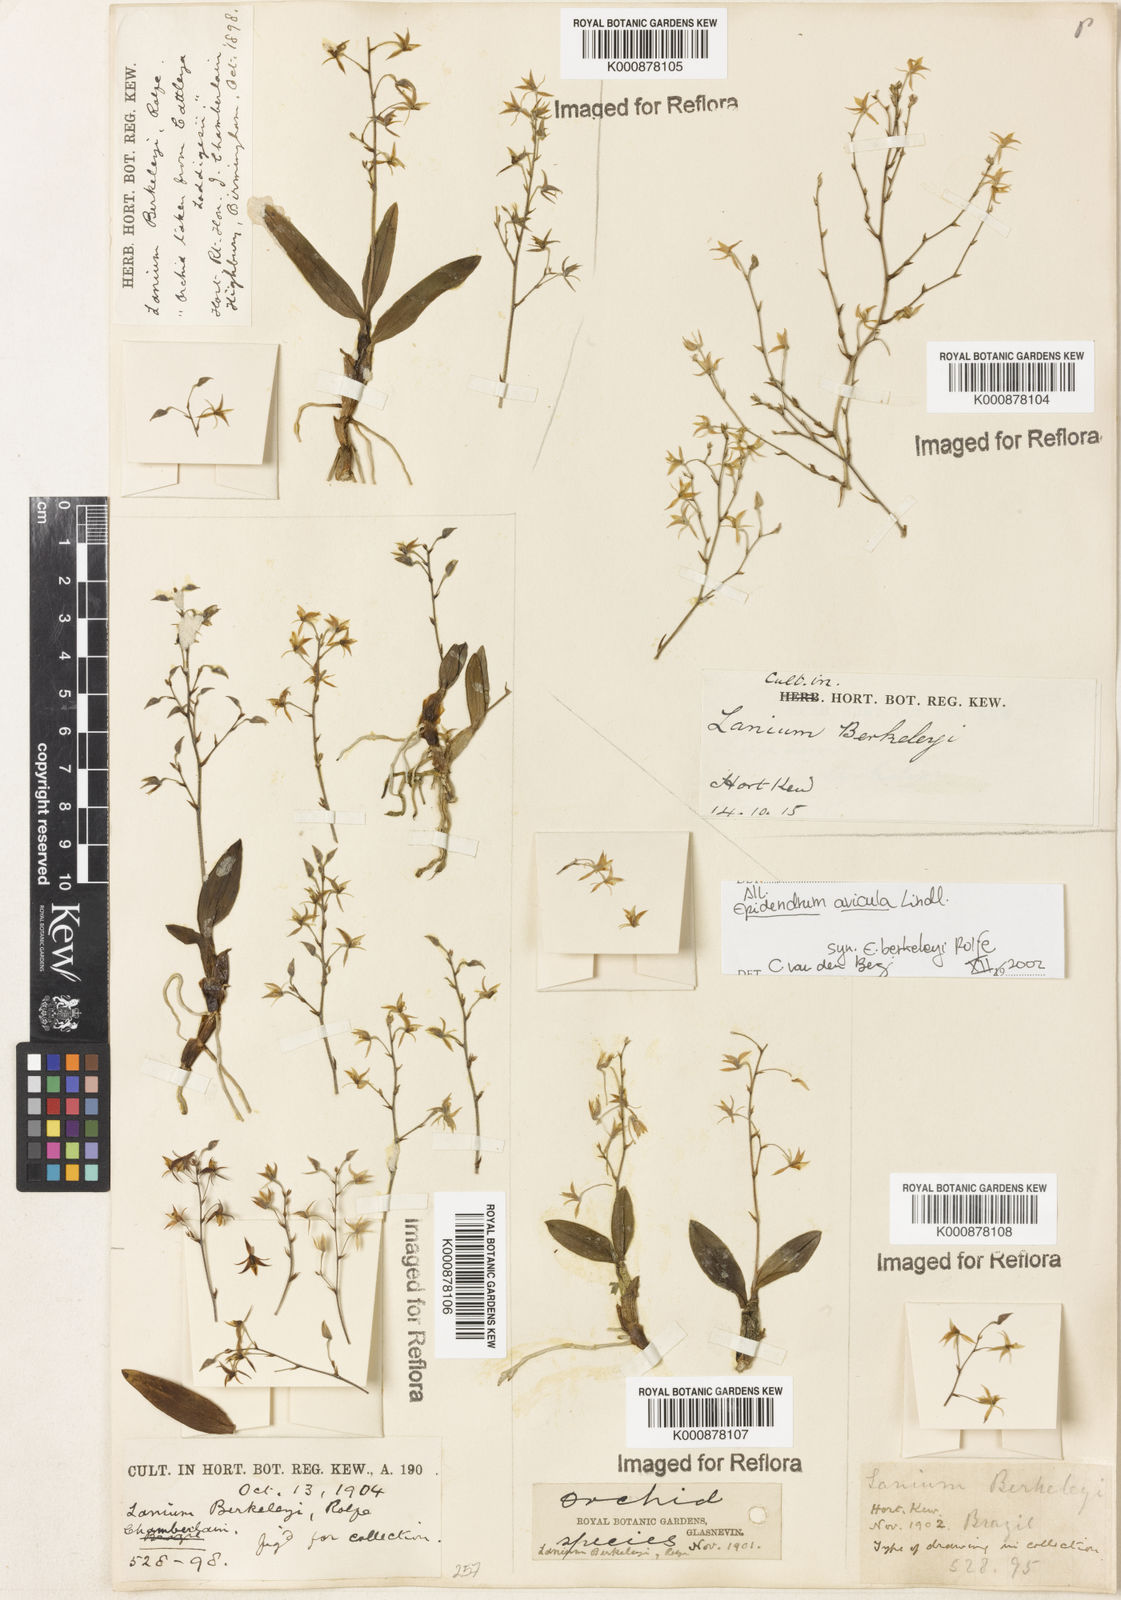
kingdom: Plantae
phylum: Tracheophyta
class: Liliopsida
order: Asparagales
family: Orchidaceae
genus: Epidendrum
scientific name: Epidendrum avicula
